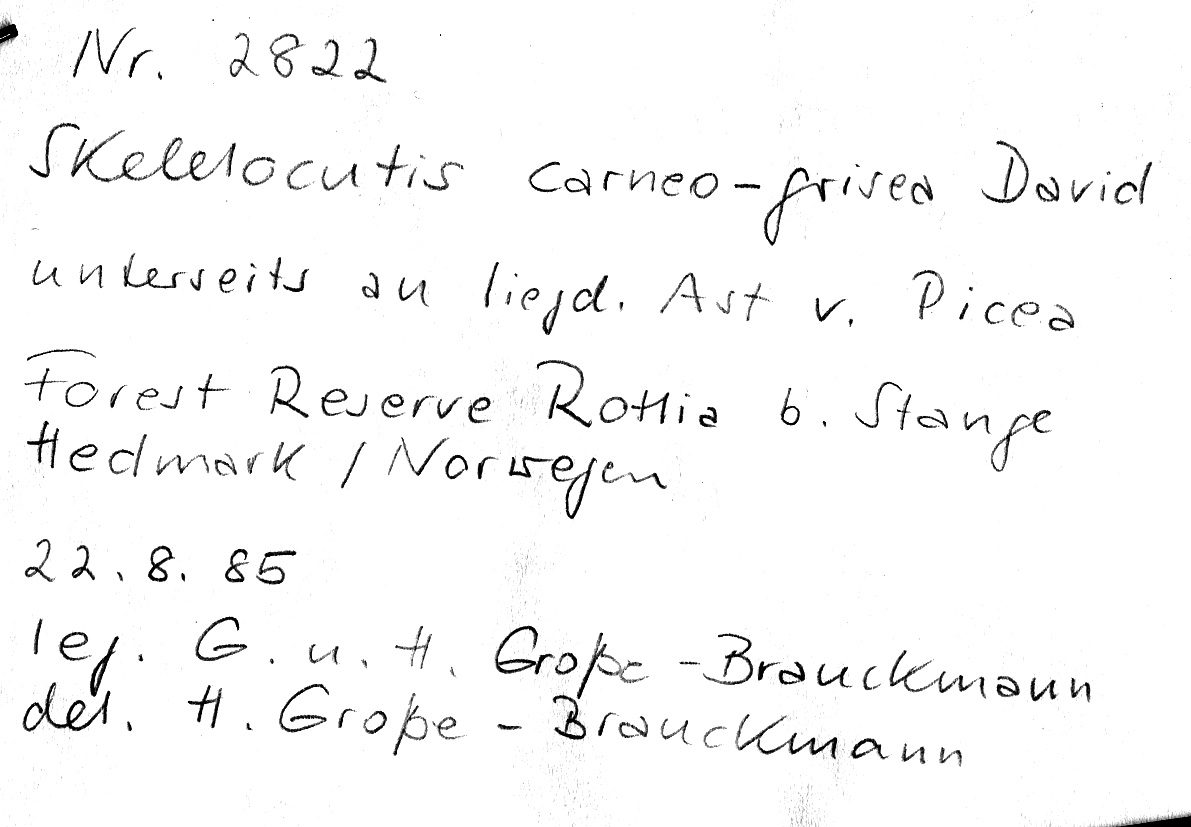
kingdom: Plantae
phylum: Tracheophyta
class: Pinopsida
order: Pinales
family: Pinaceae
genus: Picea
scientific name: Picea
